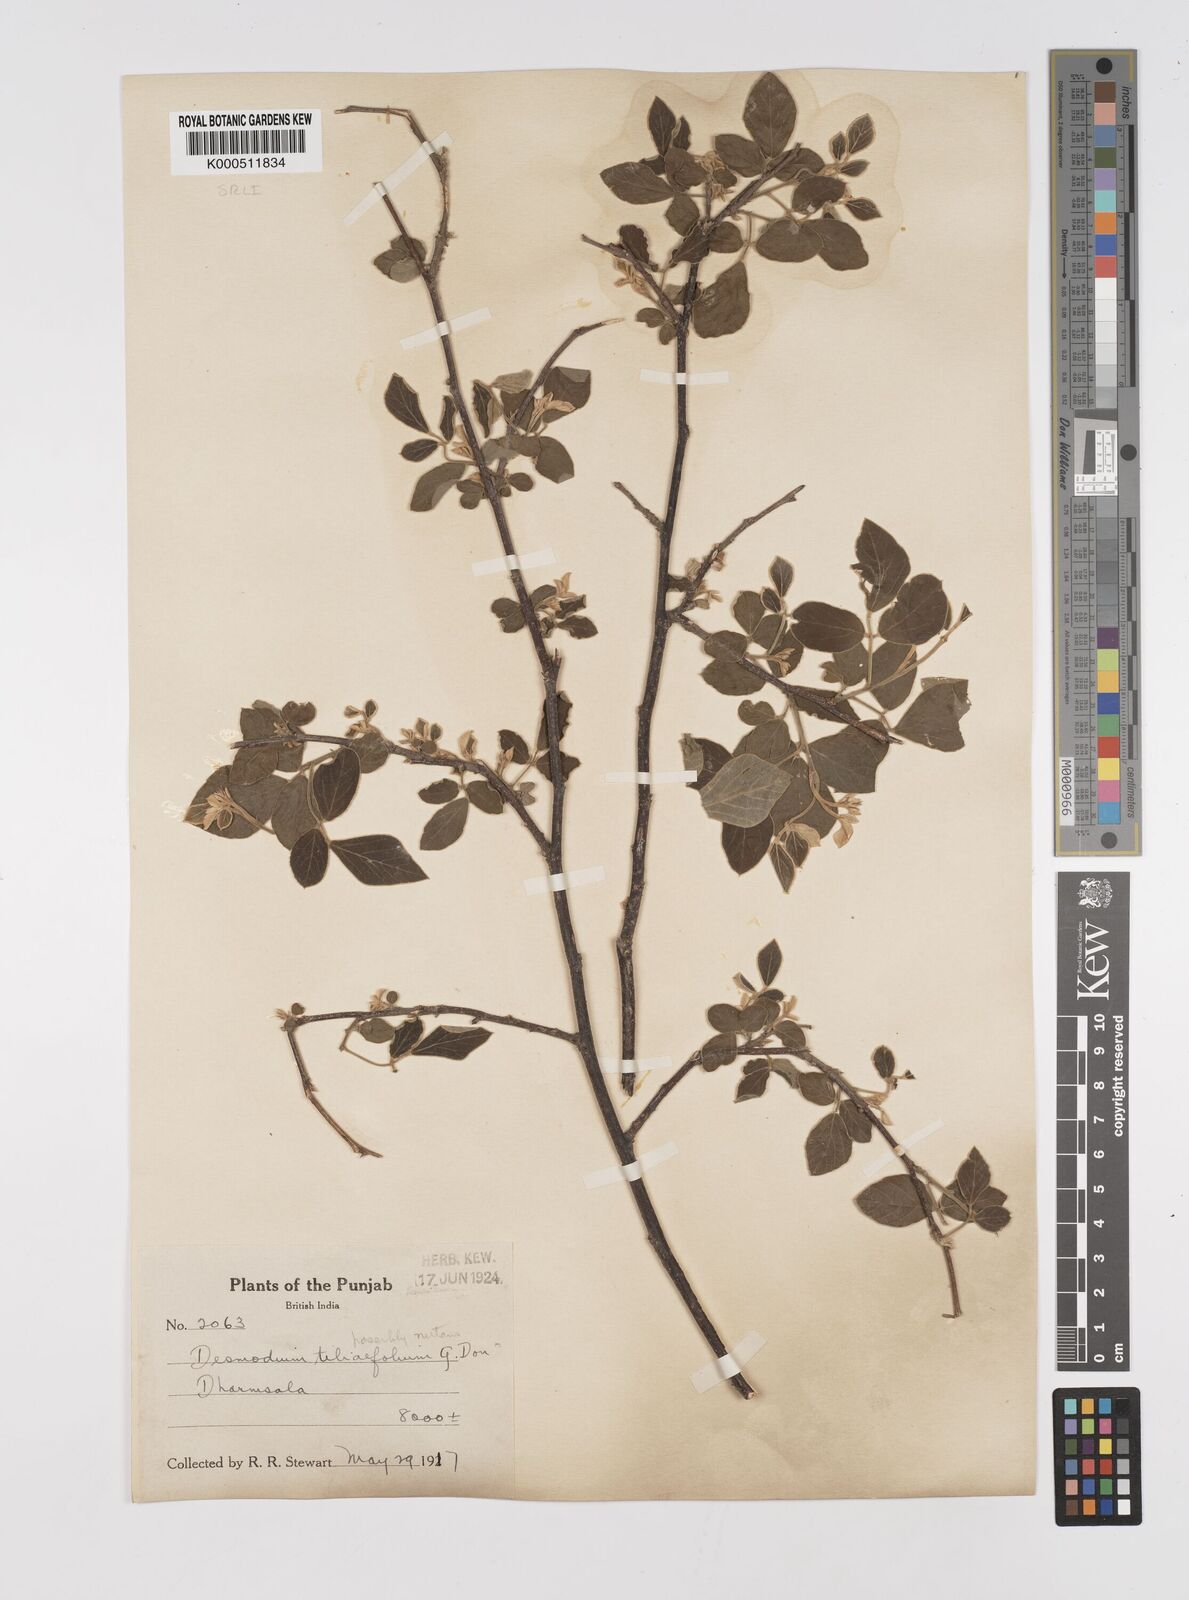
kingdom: Plantae
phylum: Tracheophyta
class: Magnoliopsida
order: Fabales
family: Fabaceae
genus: Sunhangia
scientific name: Sunhangia elegans
